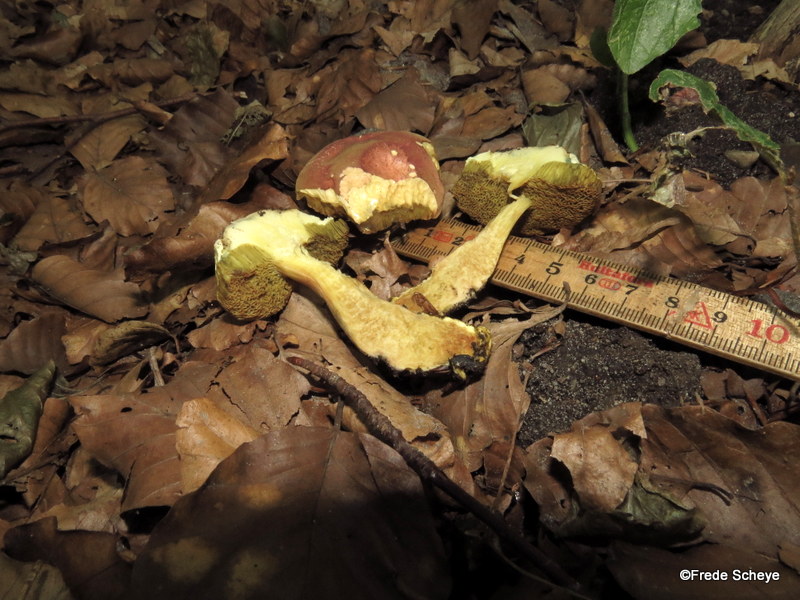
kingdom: Fungi
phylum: Basidiomycota
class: Agaricomycetes
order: Boletales
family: Boletaceae
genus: Xerocomellus
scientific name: Xerocomellus chrysenteron
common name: rødsprukken rørhat
